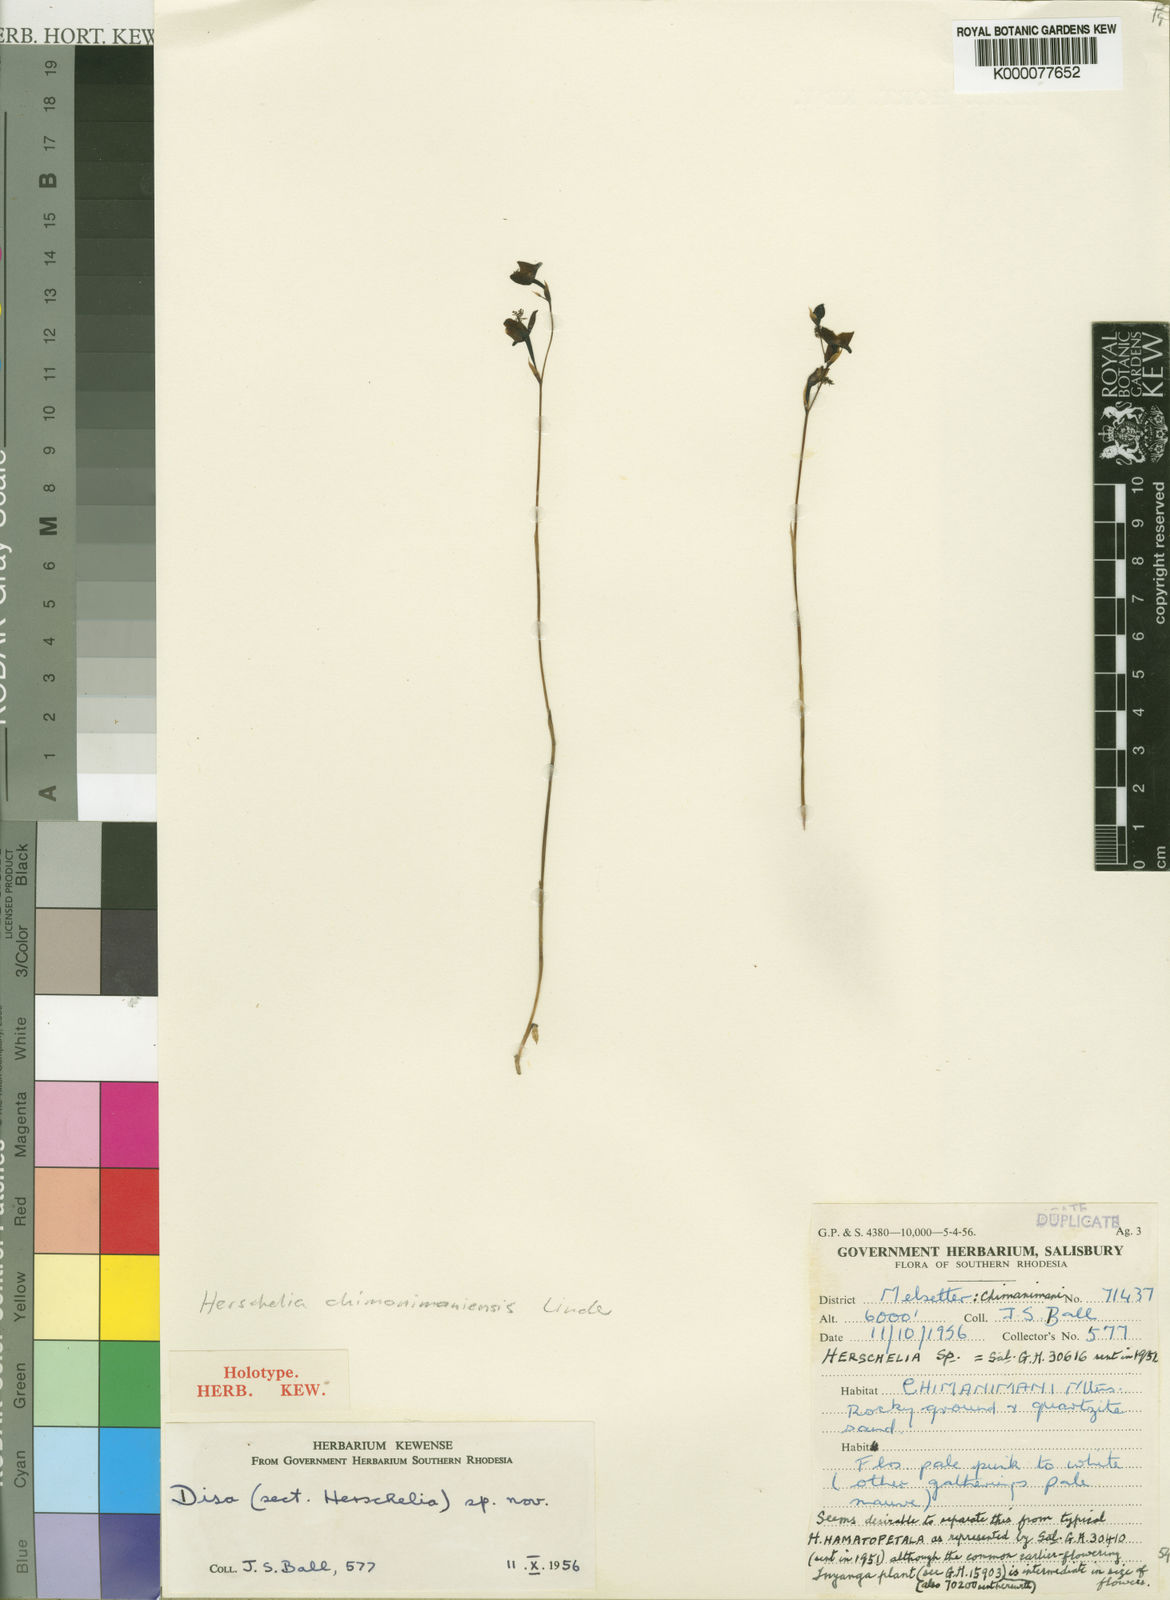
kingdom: Plantae
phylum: Tracheophyta
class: Liliopsida
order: Asparagales
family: Orchidaceae
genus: Disa
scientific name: Disa chimanimaniensis
